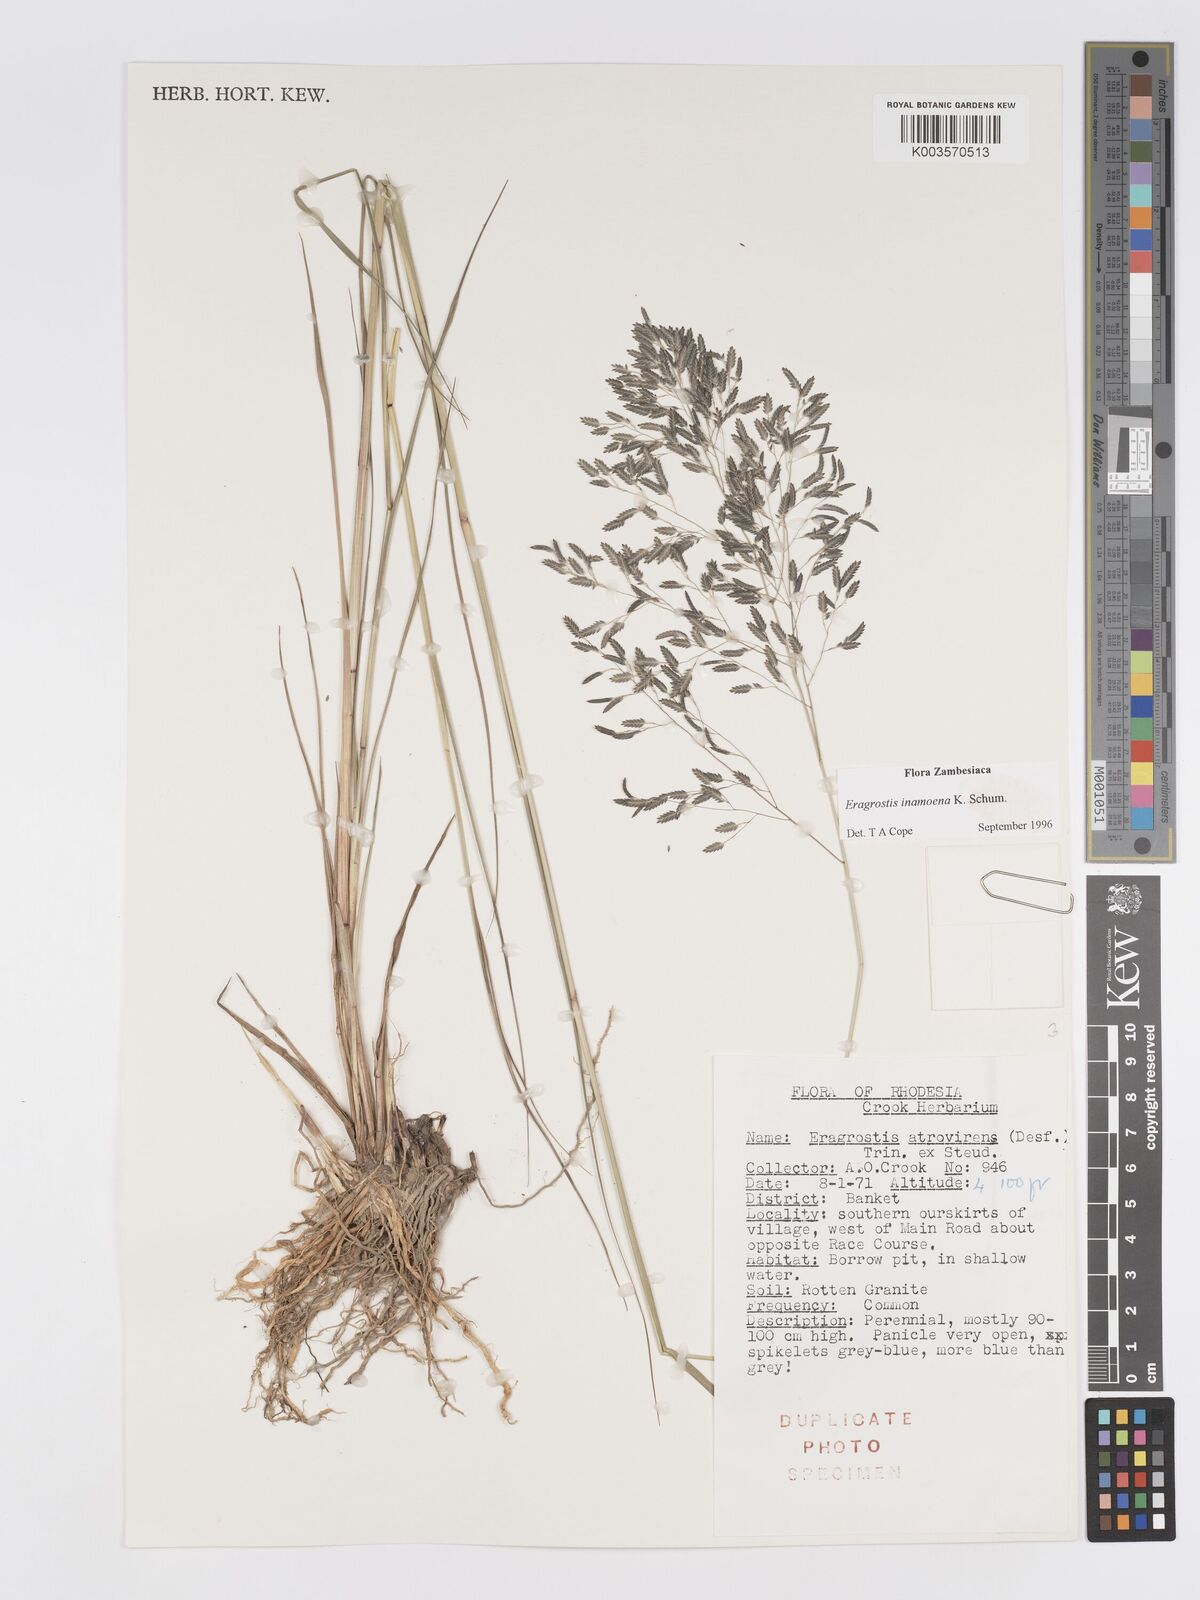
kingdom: Plantae
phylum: Tracheophyta
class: Liliopsida
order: Poales
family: Poaceae
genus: Eragrostis
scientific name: Eragrostis inamoena
